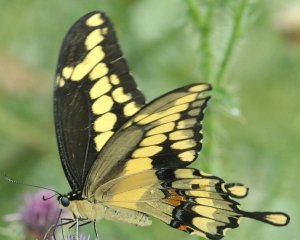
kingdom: Animalia
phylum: Arthropoda
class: Insecta
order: Lepidoptera
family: Papilionidae
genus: Papilio
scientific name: Papilio cresphontes
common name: Eastern Giant Swallowtail
